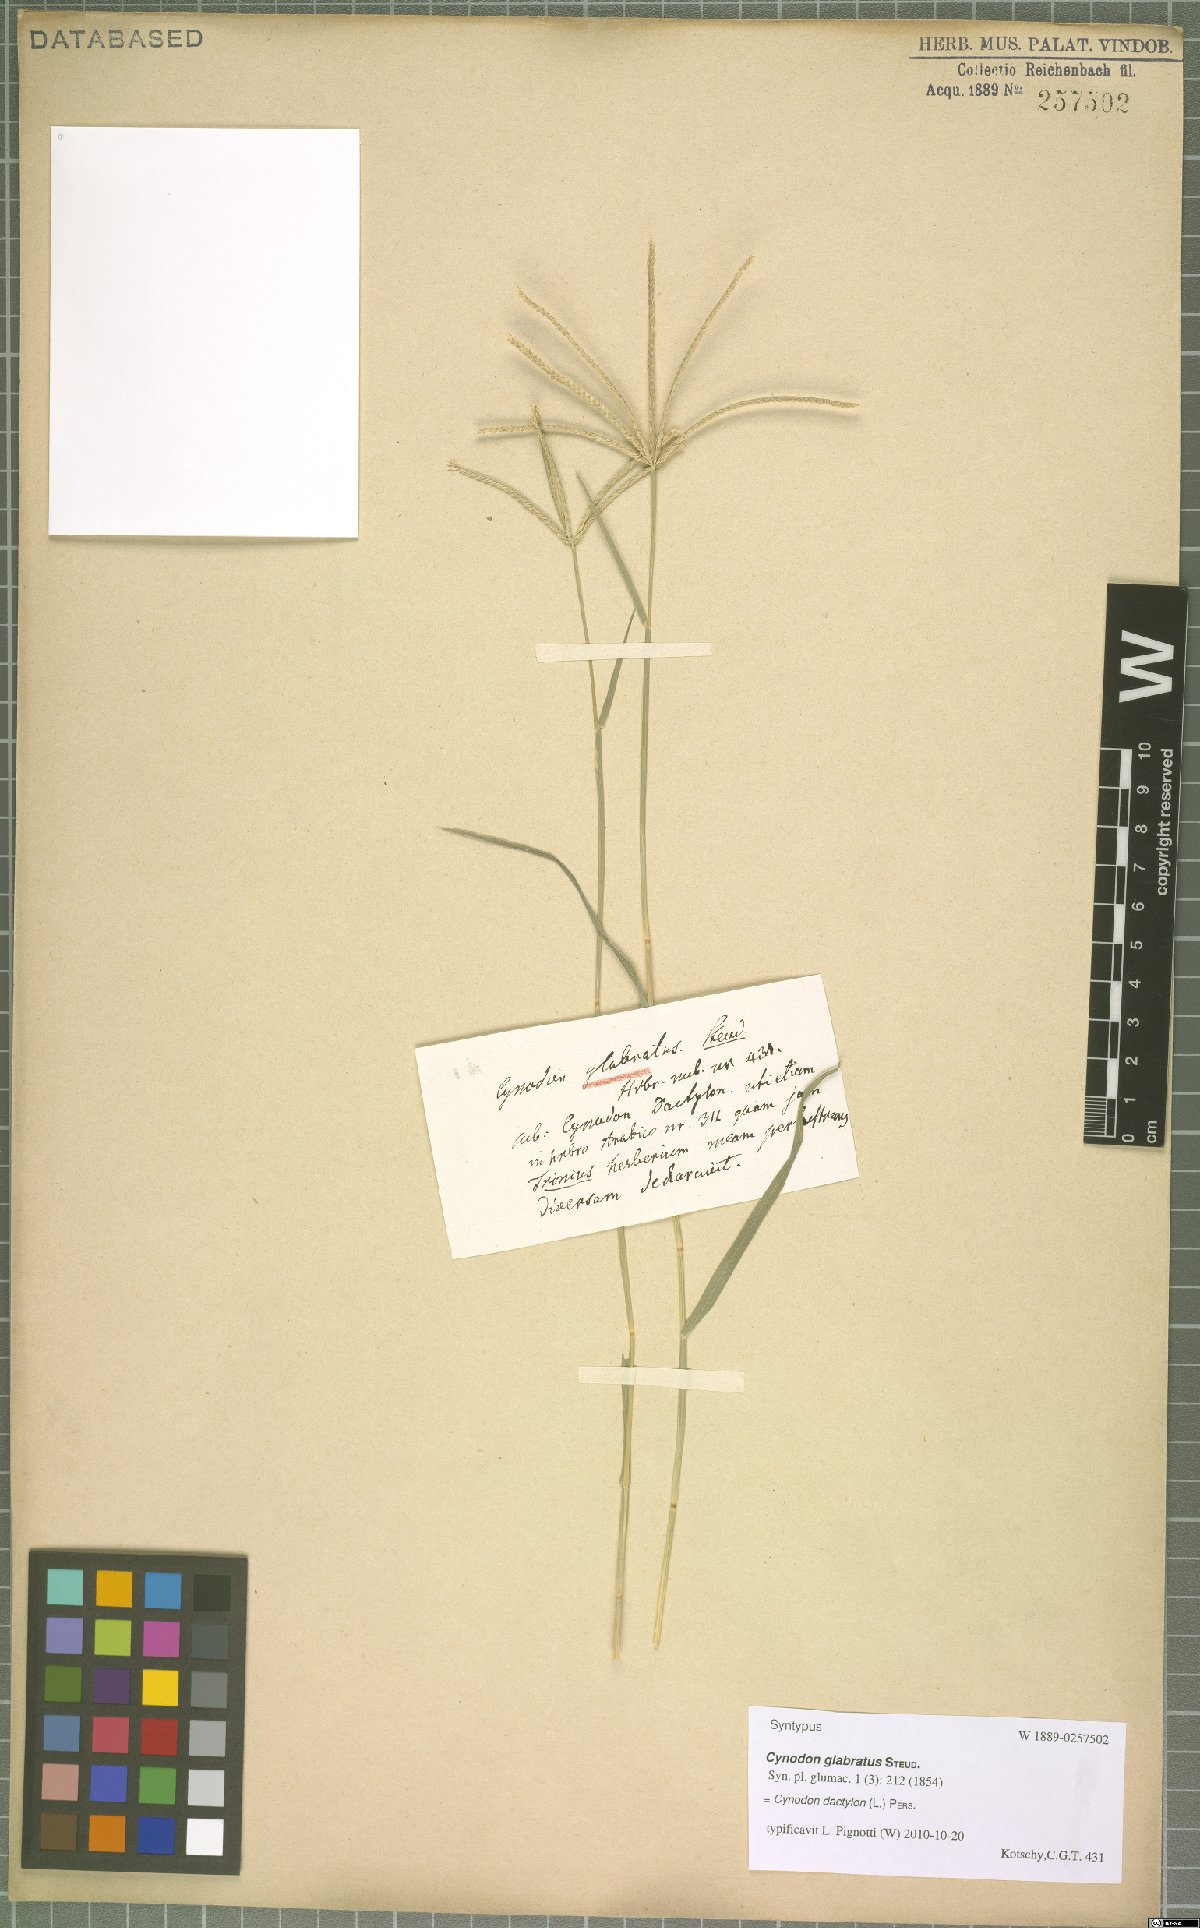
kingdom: Plantae
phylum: Tracheophyta
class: Liliopsida
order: Poales
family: Poaceae
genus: Cynodon
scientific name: Cynodon dactylon
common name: Bermuda grass
